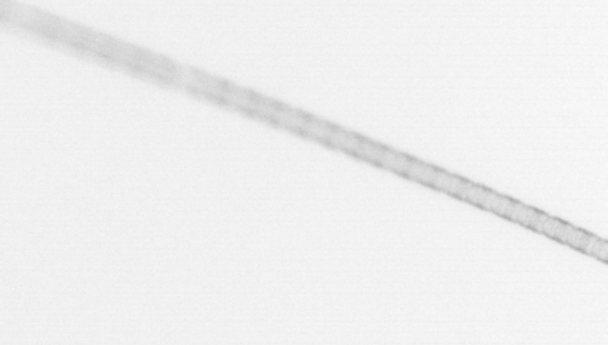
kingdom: Chromista
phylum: Ochrophyta
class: Bacillariophyceae
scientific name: Bacillariophyceae
